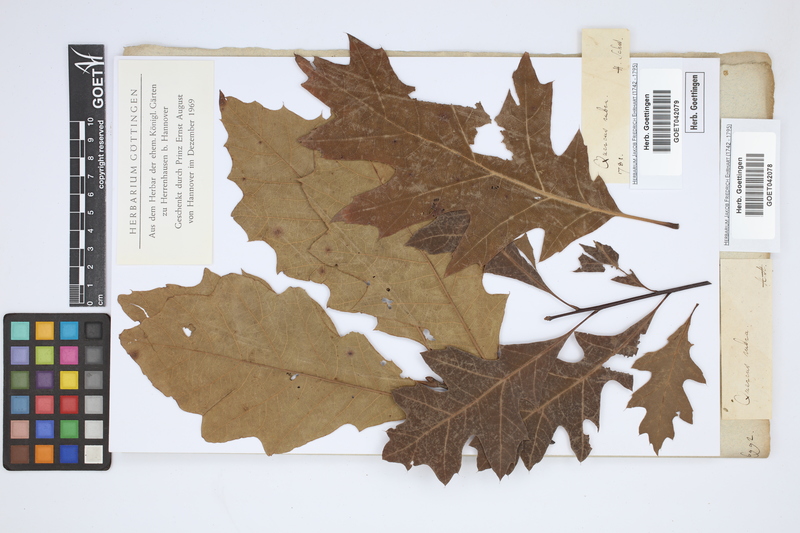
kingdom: Plantae
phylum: Tracheophyta
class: Magnoliopsida
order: Fagales
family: Fagaceae
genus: Quercus
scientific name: Quercus rubra
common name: Red oak
